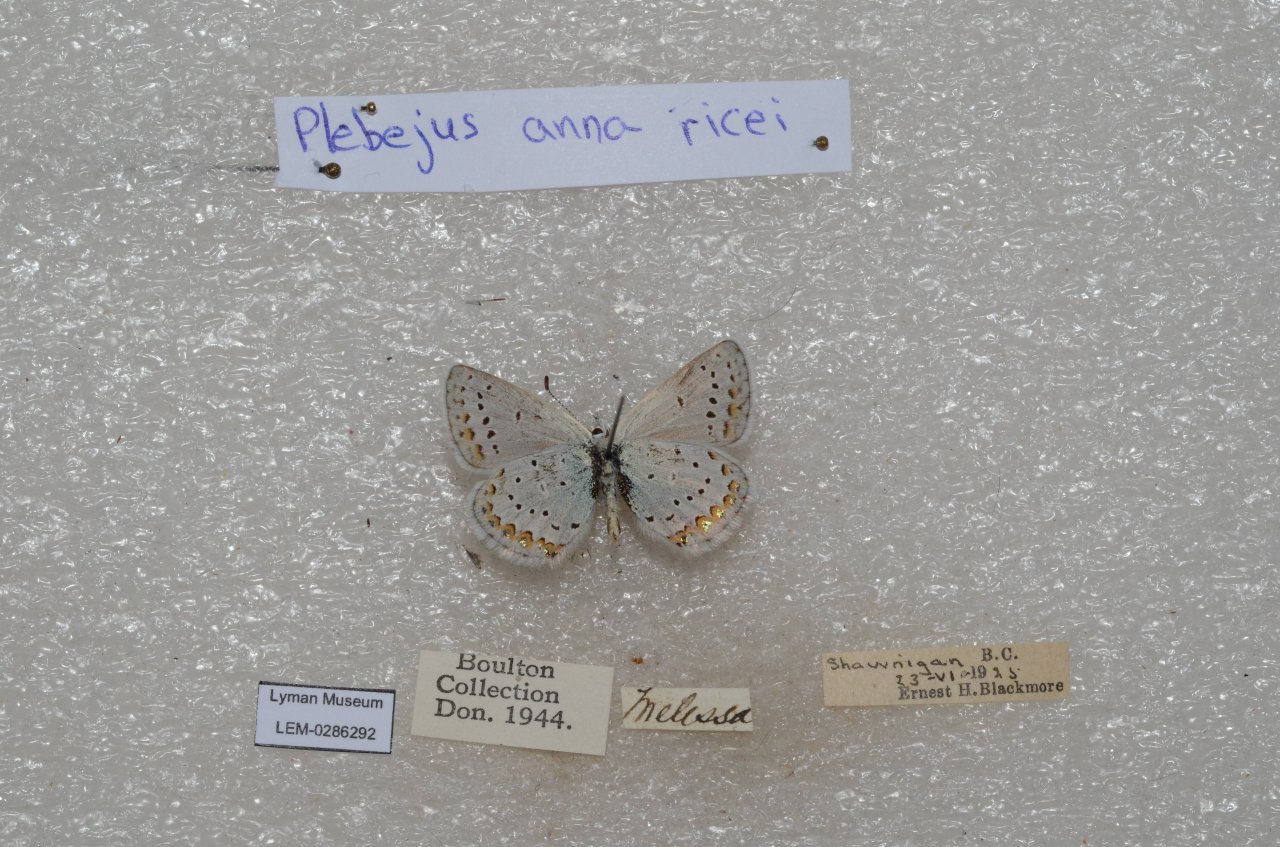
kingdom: Animalia
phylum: Arthropoda
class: Insecta
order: Lepidoptera
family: Lycaenidae
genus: Lycaeides
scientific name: Lycaeides anna
